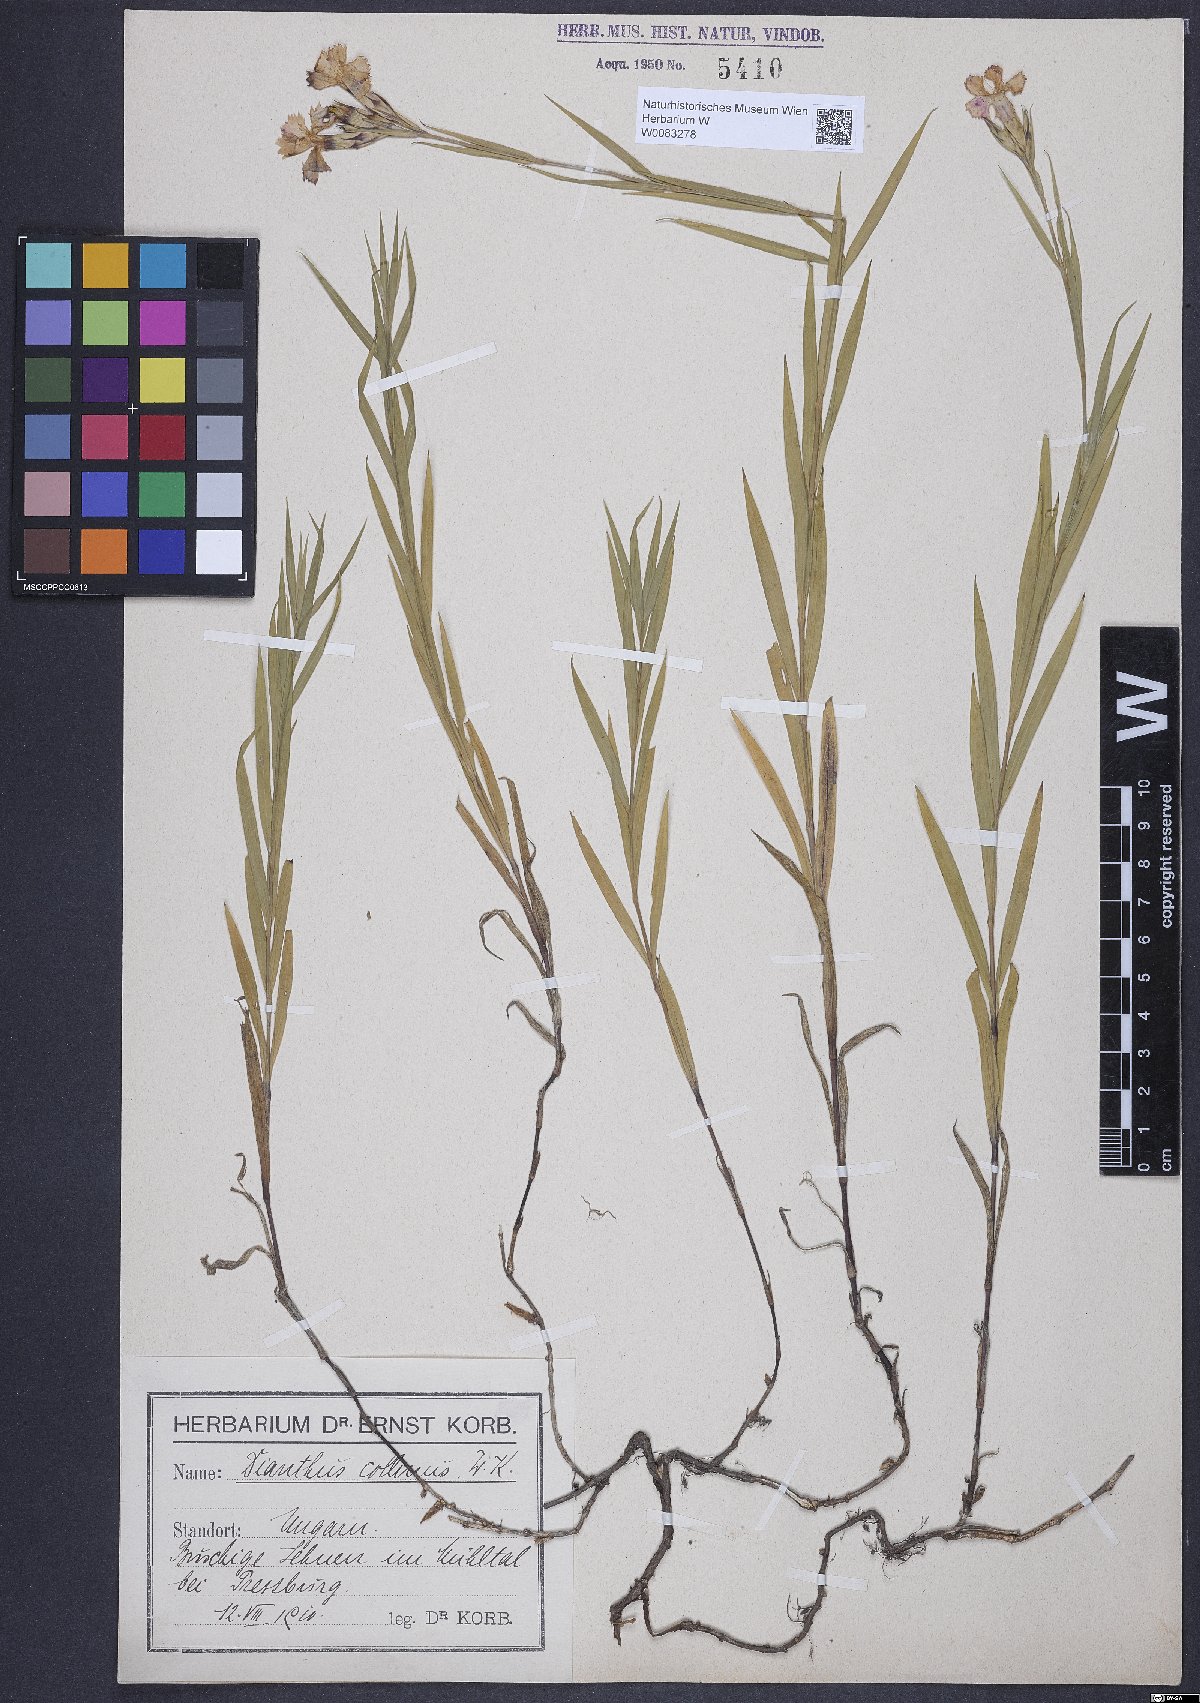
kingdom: Plantae
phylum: Tracheophyta
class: Magnoliopsida
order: Caryophyllales
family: Caryophyllaceae
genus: Dianthus
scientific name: Dianthus collinus
